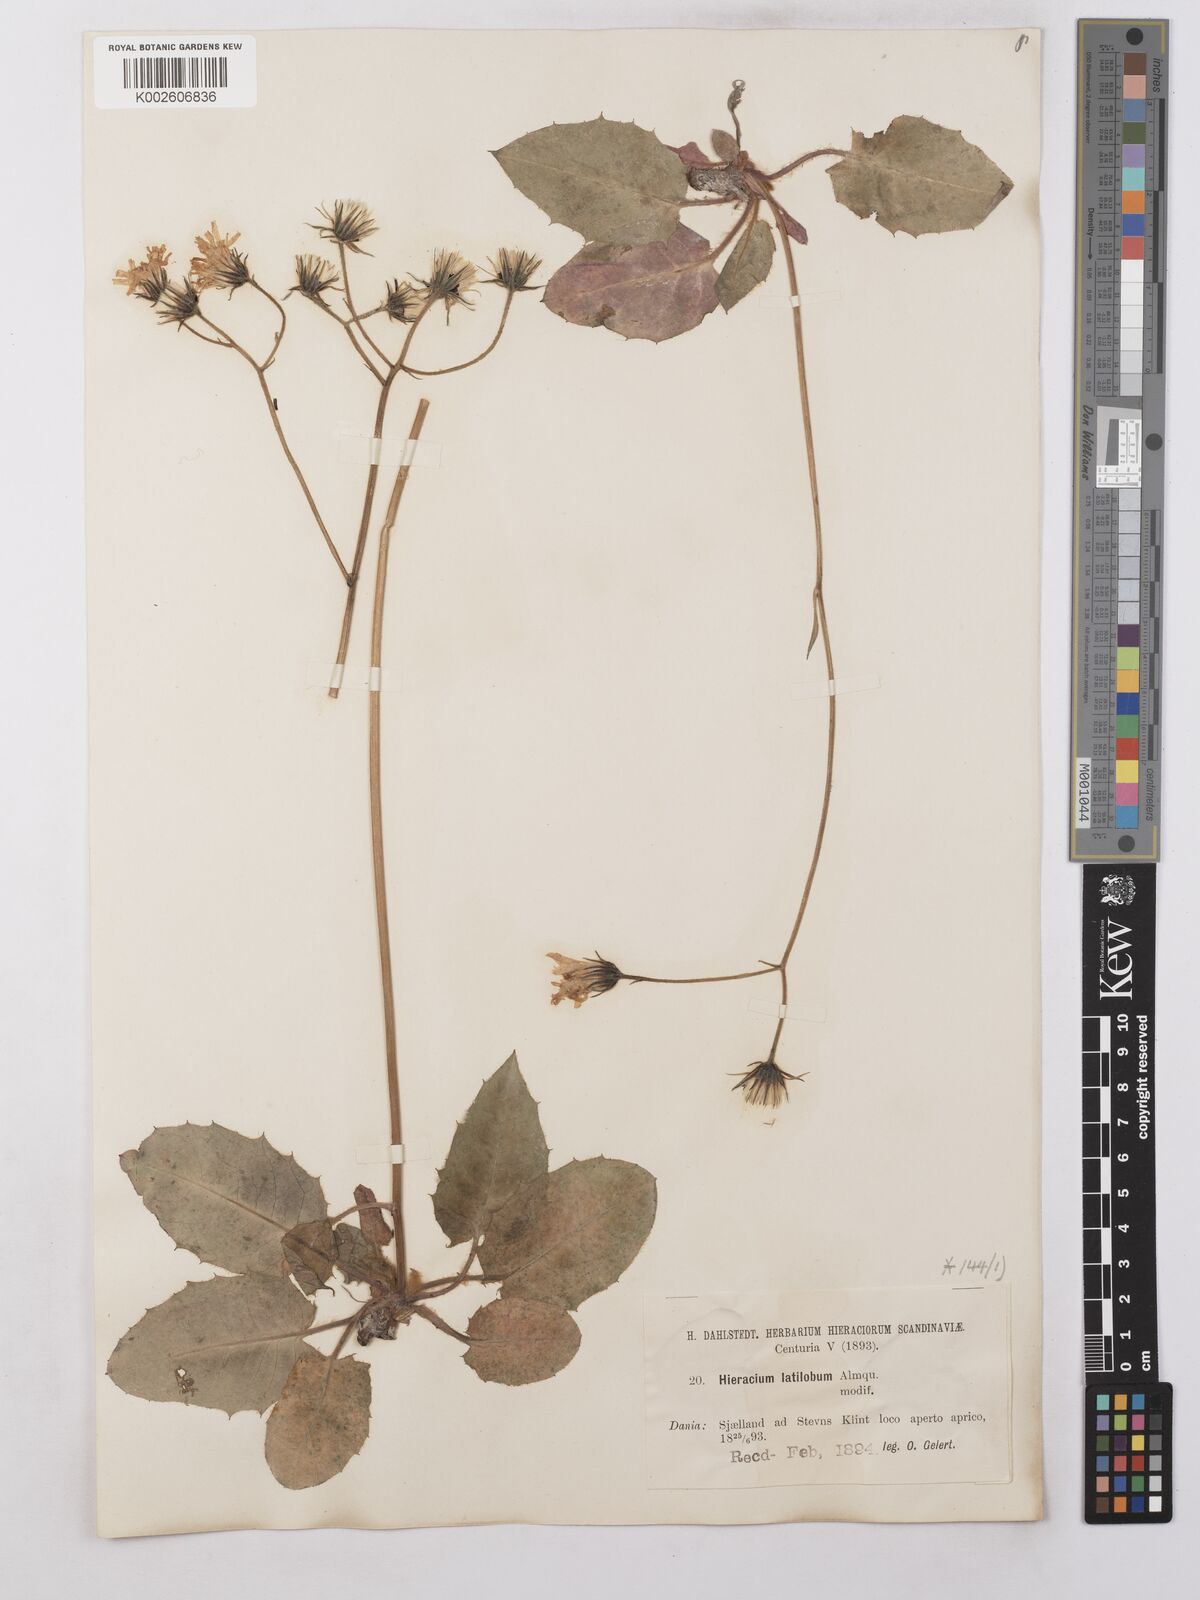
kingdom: Plantae
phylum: Tracheophyta
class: Magnoliopsida
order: Asterales
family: Asteraceae
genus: Hieracium
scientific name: Hieracium chlorellum
